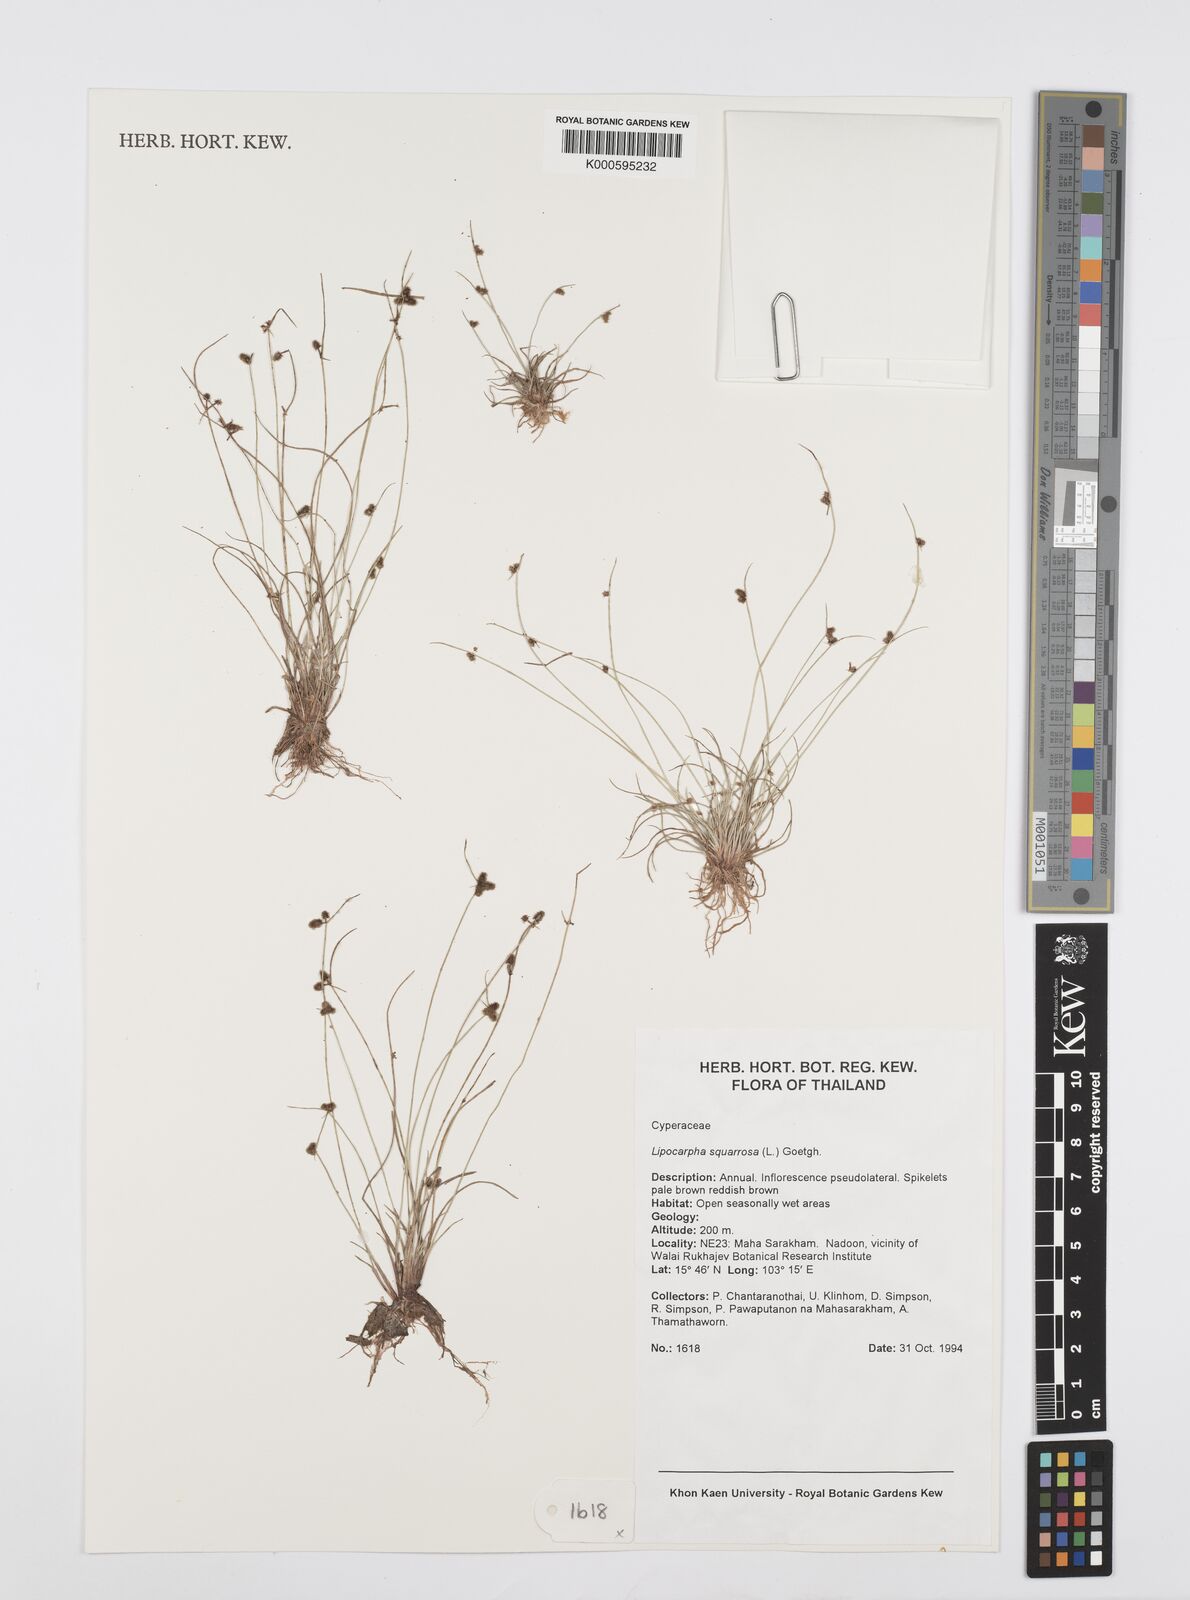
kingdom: Plantae
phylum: Tracheophyta
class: Liliopsida
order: Poales
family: Cyperaceae
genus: Cyperus
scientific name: Cyperus neochinensis
